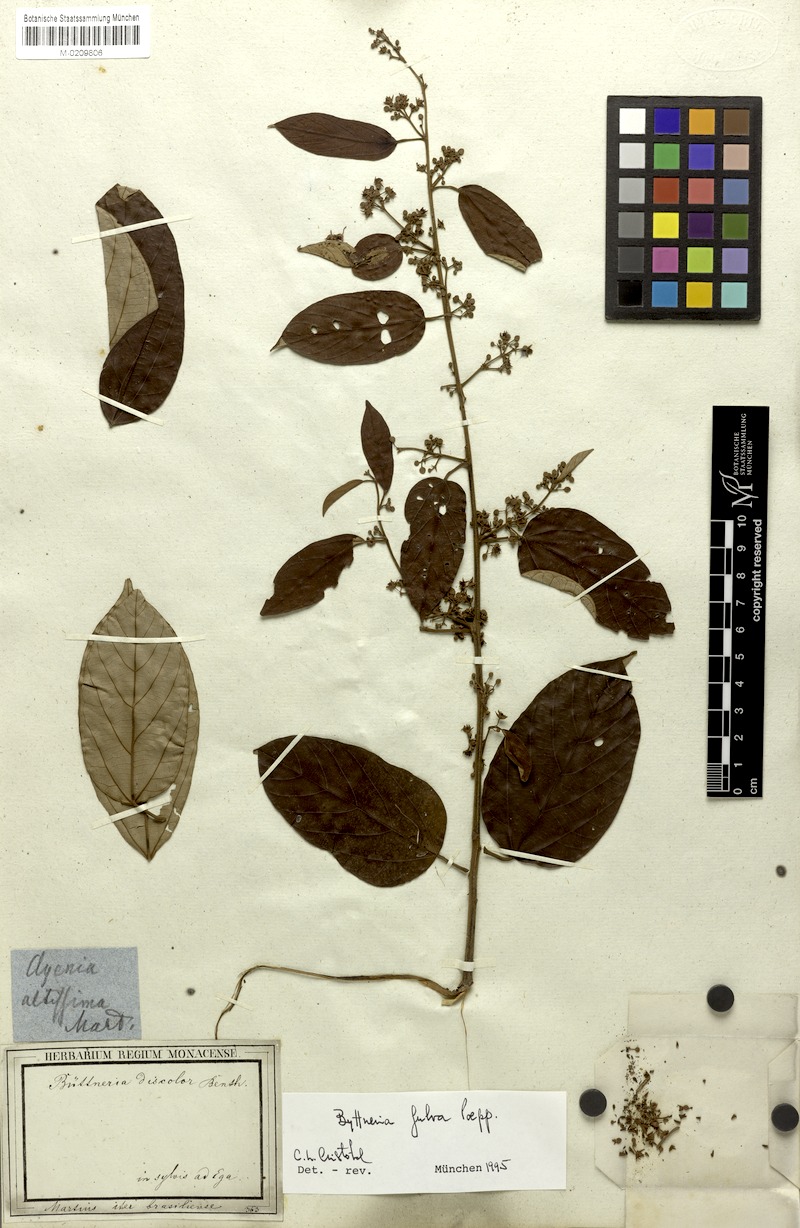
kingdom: Plantae
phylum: Tracheophyta
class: Magnoliopsida
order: Malvales
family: Malvaceae
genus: Byttneria
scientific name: Byttneria fulva
